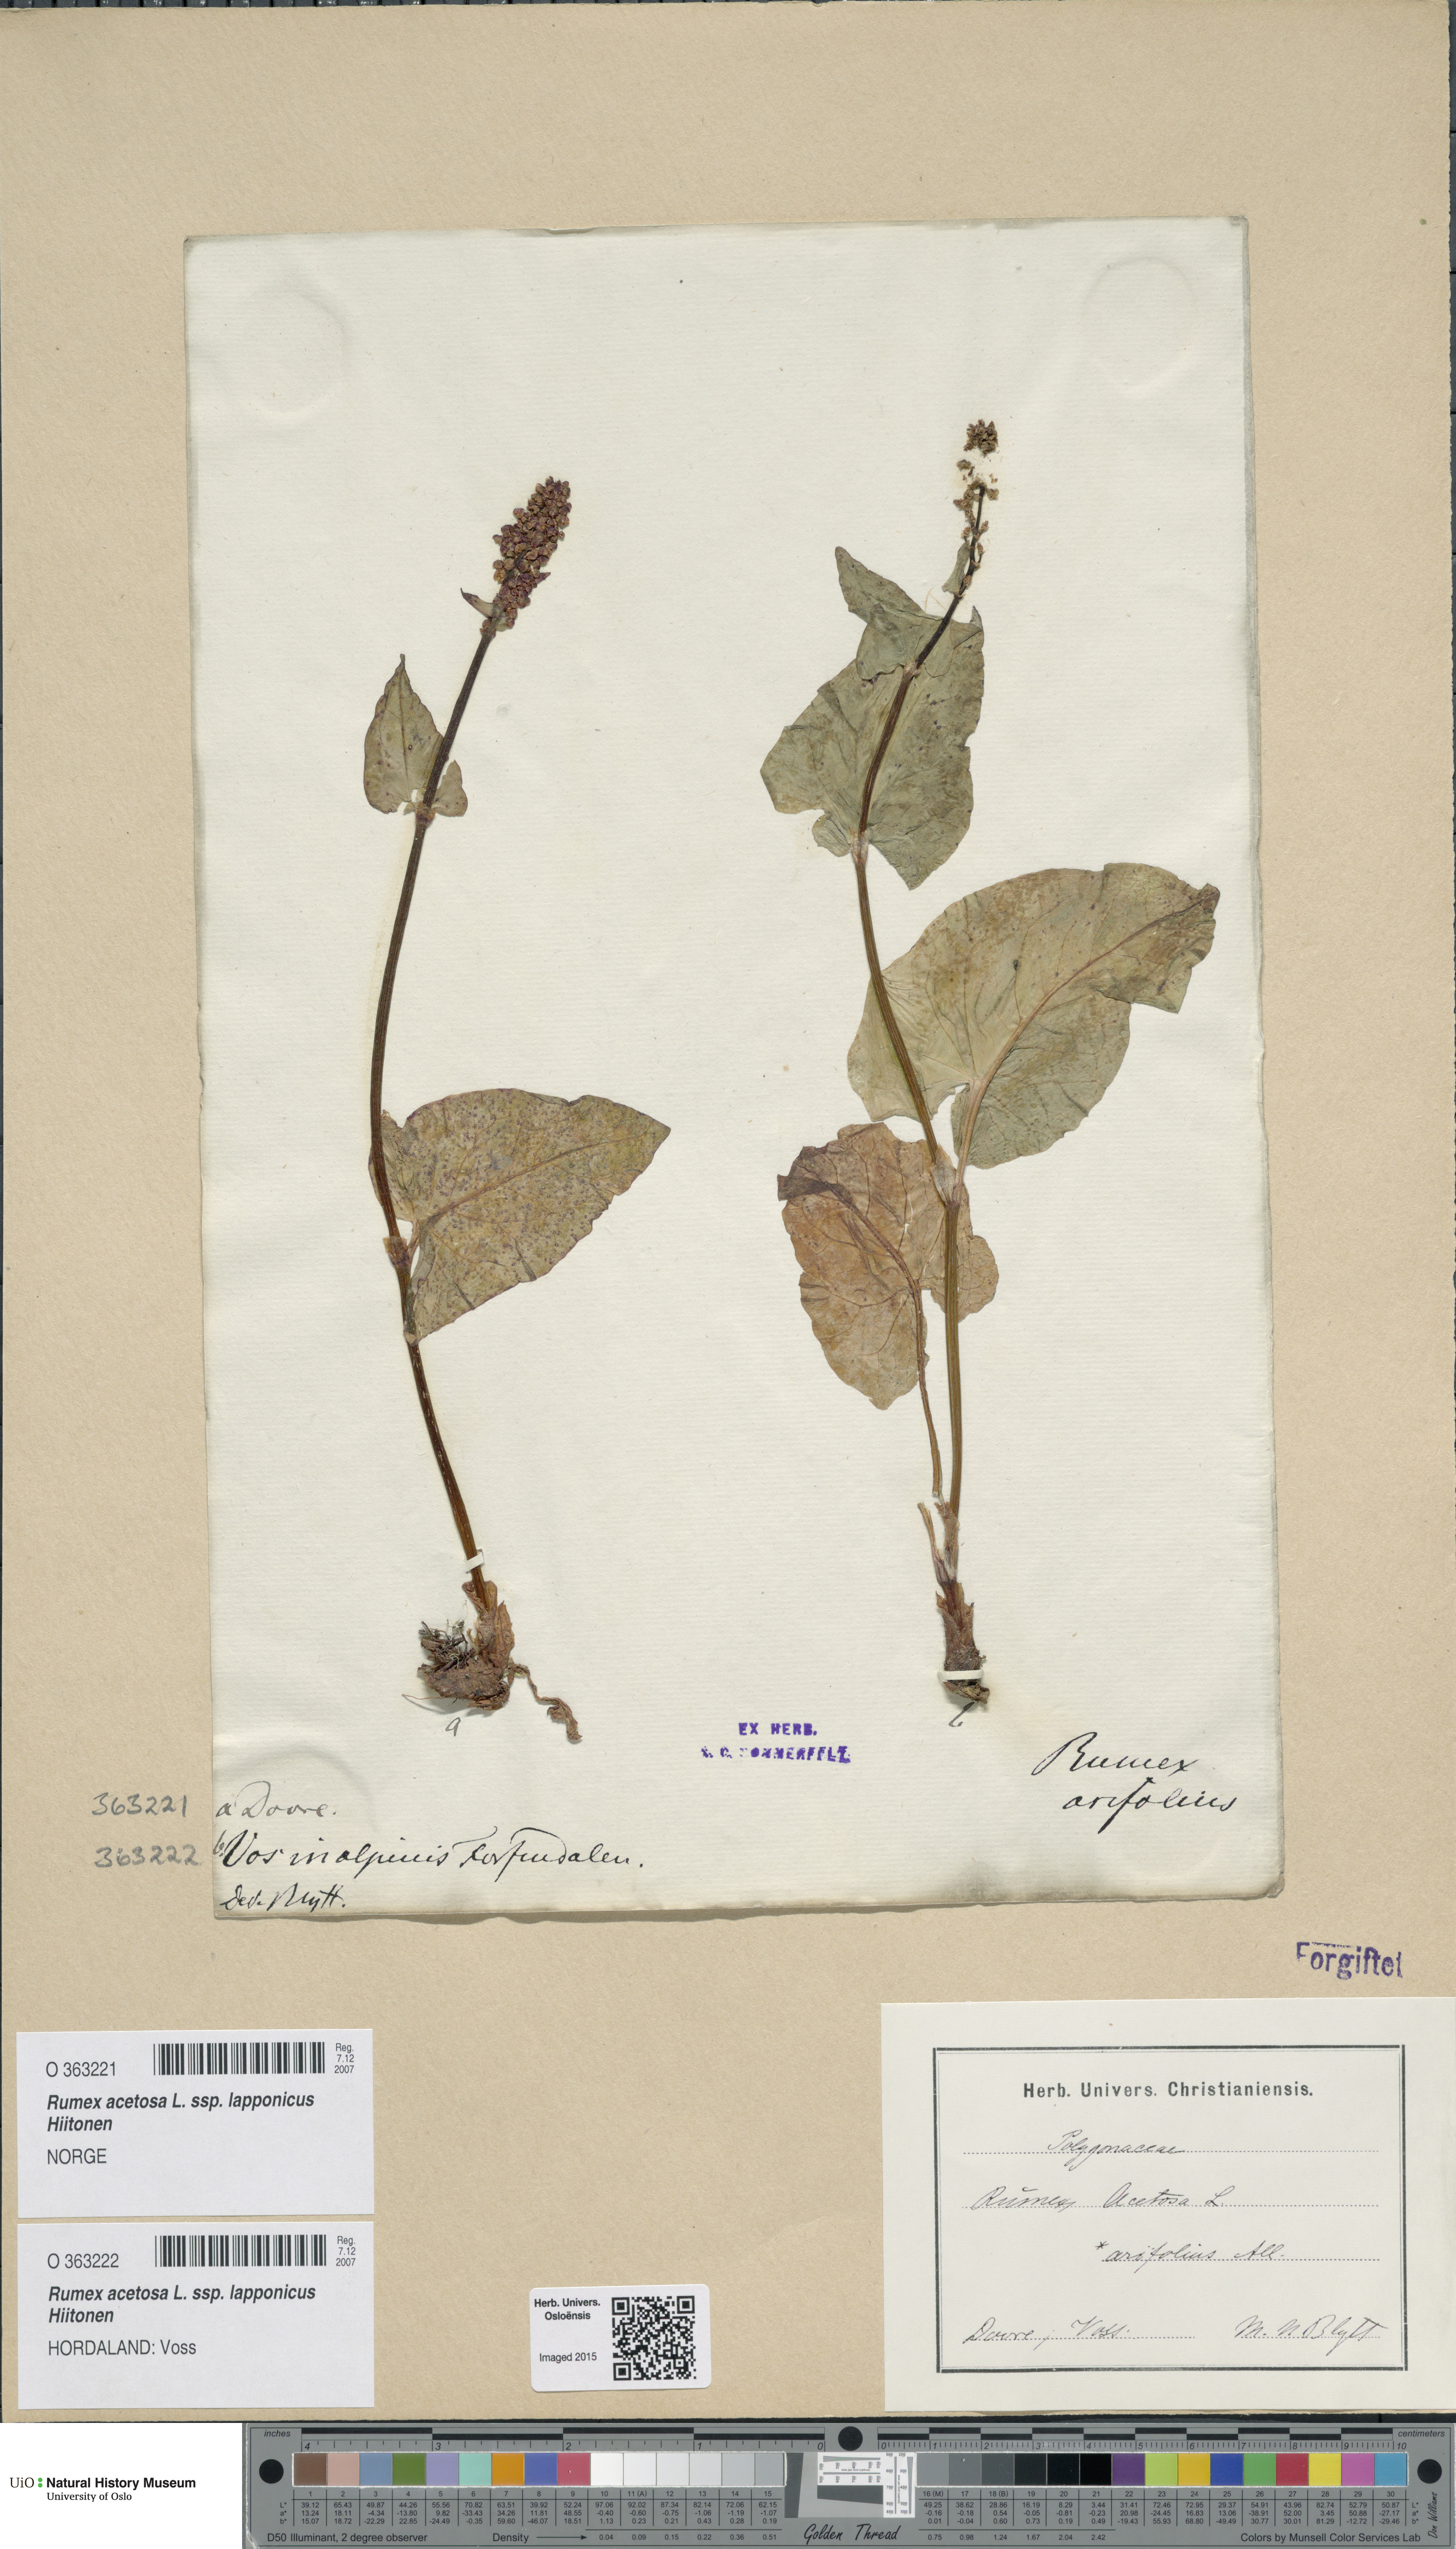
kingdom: Plantae
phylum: Tracheophyta
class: Magnoliopsida
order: Caryophyllales
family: Polygonaceae
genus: Rumex
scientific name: Rumex arifolius
